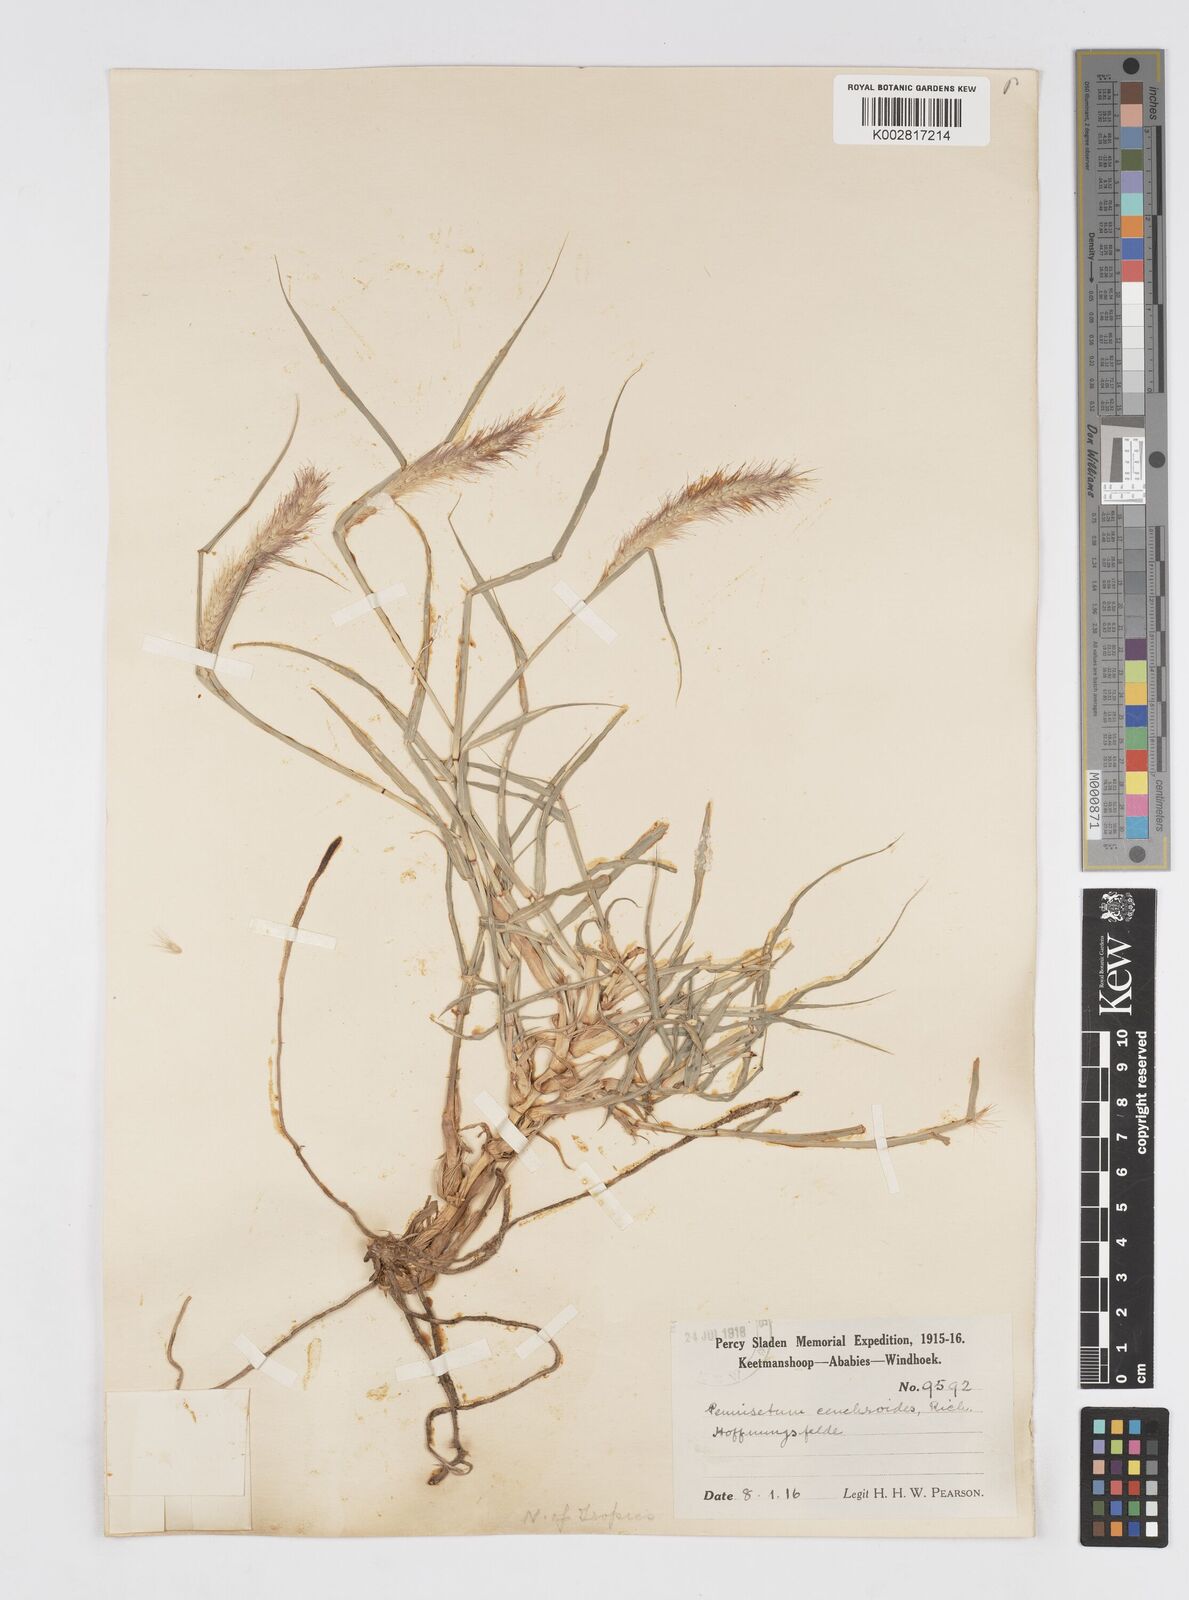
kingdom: Plantae
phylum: Tracheophyta
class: Liliopsida
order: Poales
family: Poaceae
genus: Cenchrus
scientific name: Cenchrus ciliaris
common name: Buffelgrass
